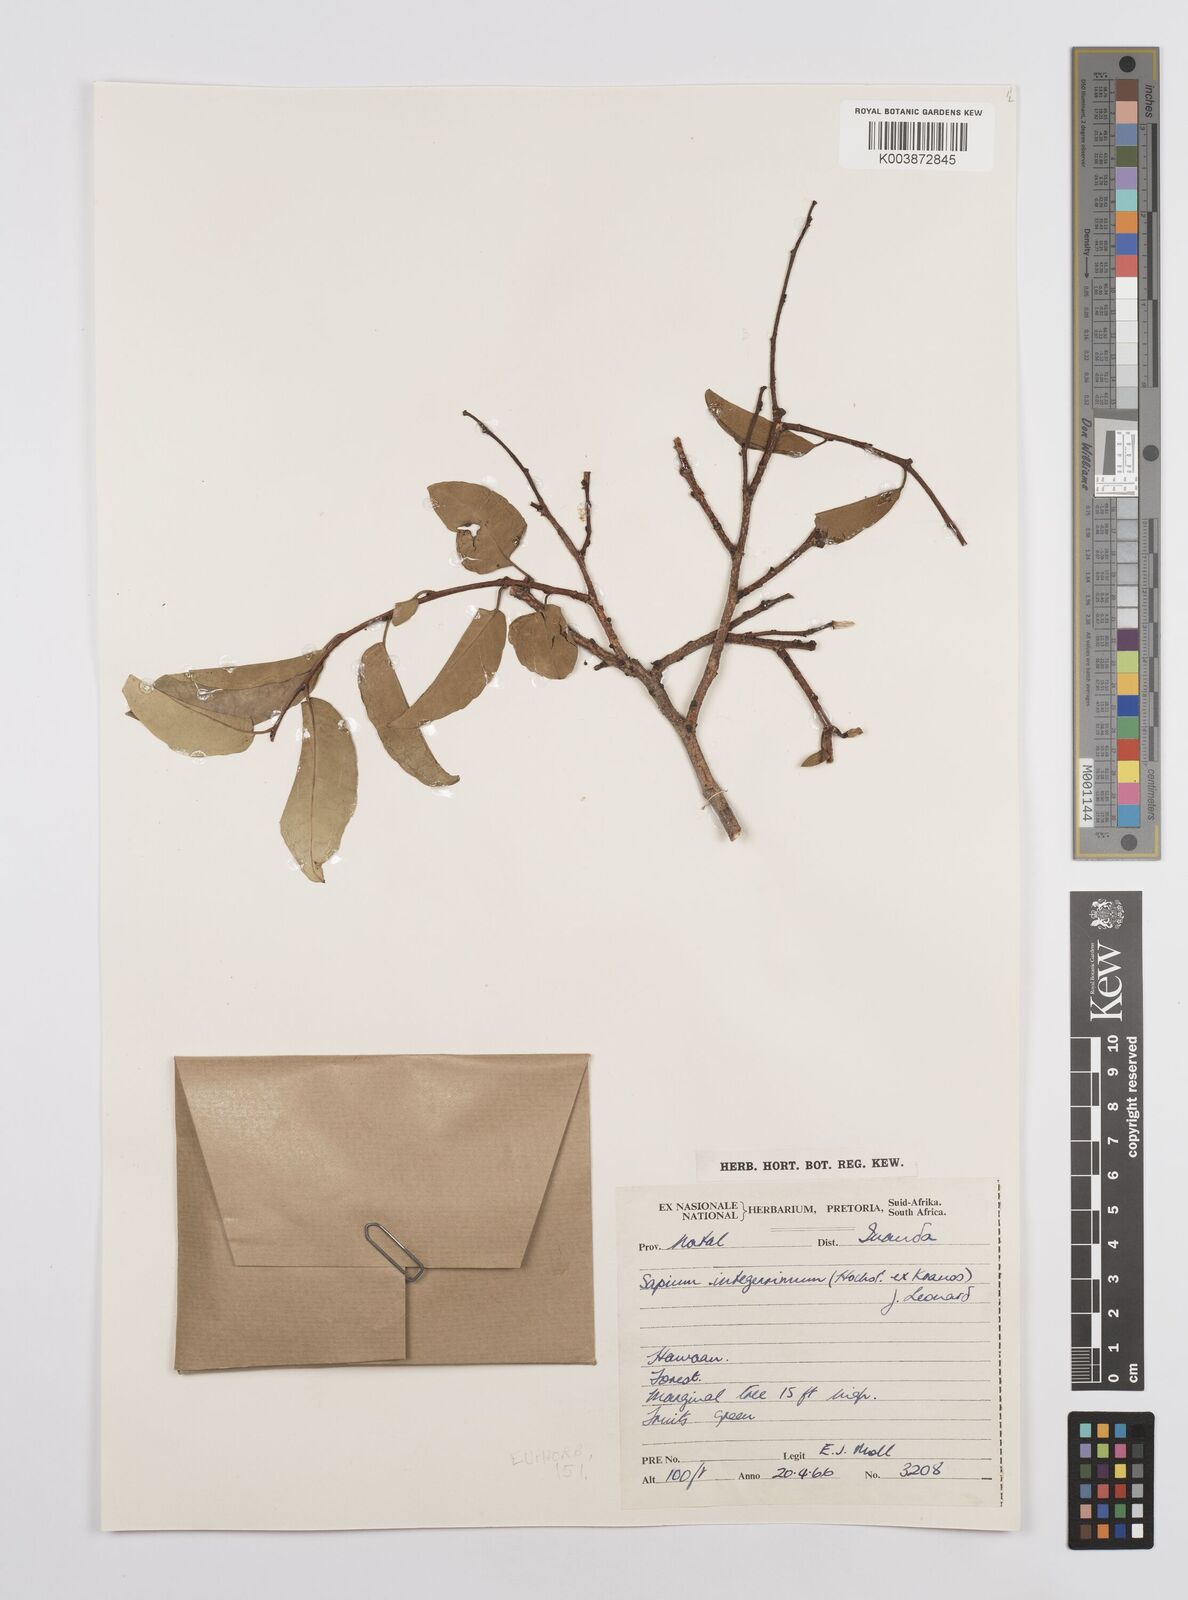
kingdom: Plantae
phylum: Tracheophyta
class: Magnoliopsida
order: Malpighiales
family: Euphorbiaceae
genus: Sclerocroton
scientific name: Sclerocroton integerrimus
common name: Duiker berry
